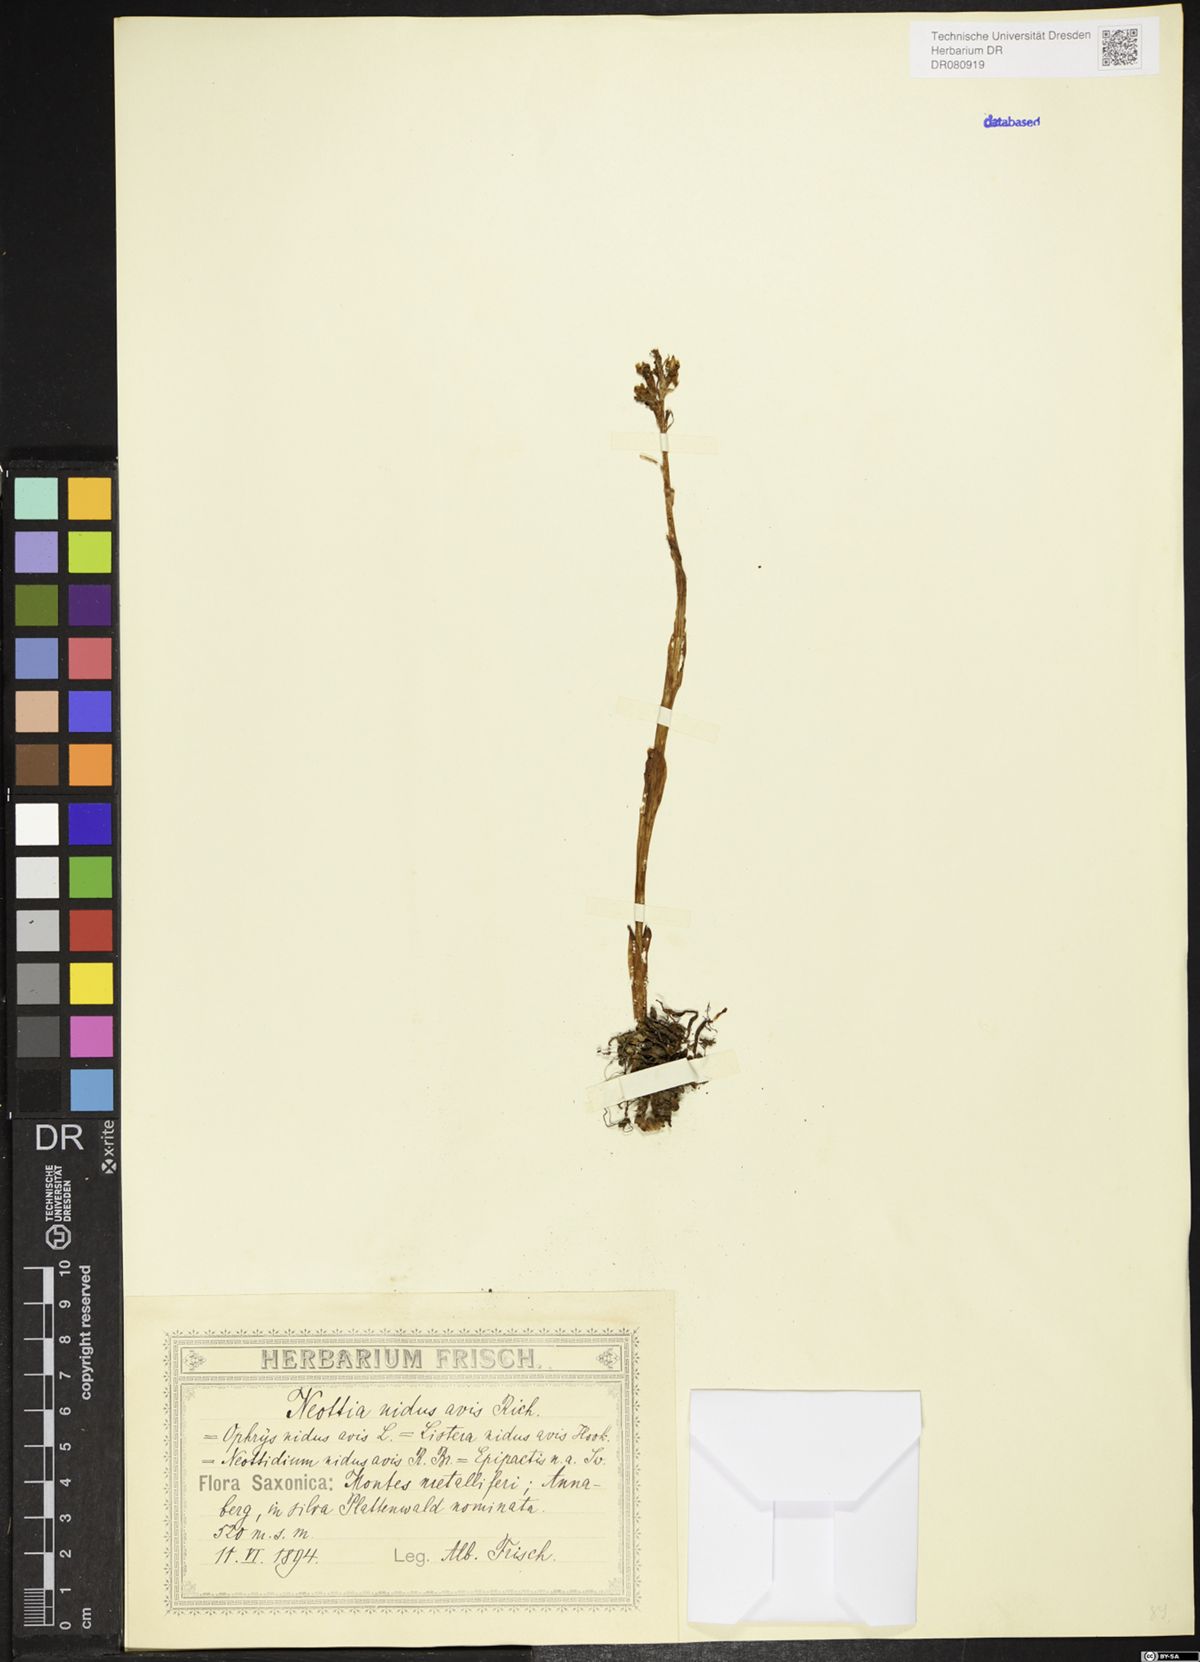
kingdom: Plantae
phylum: Tracheophyta
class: Liliopsida
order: Asparagales
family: Orchidaceae
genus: Neottia
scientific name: Neottia nidus-avis
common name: Bird's-nest orchid
